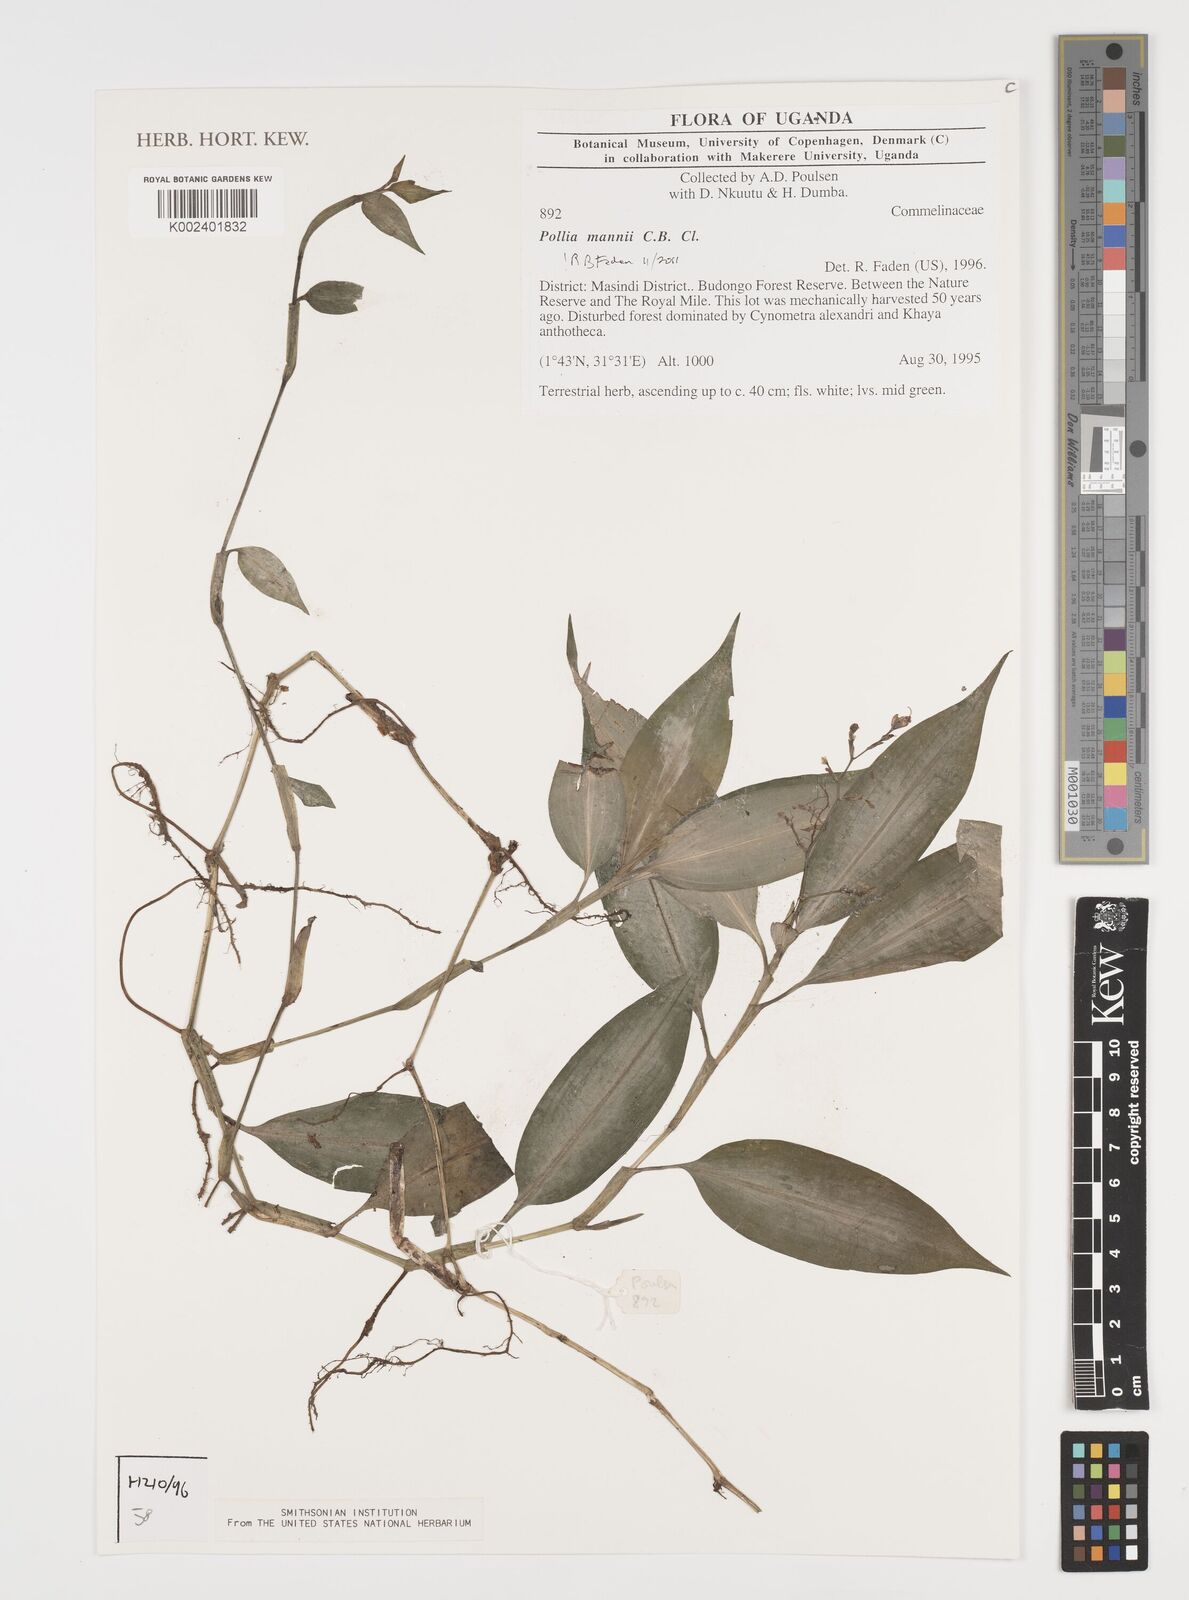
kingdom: Plantae
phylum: Tracheophyta
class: Liliopsida
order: Commelinales
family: Commelinaceae
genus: Pollia
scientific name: Pollia mannii
